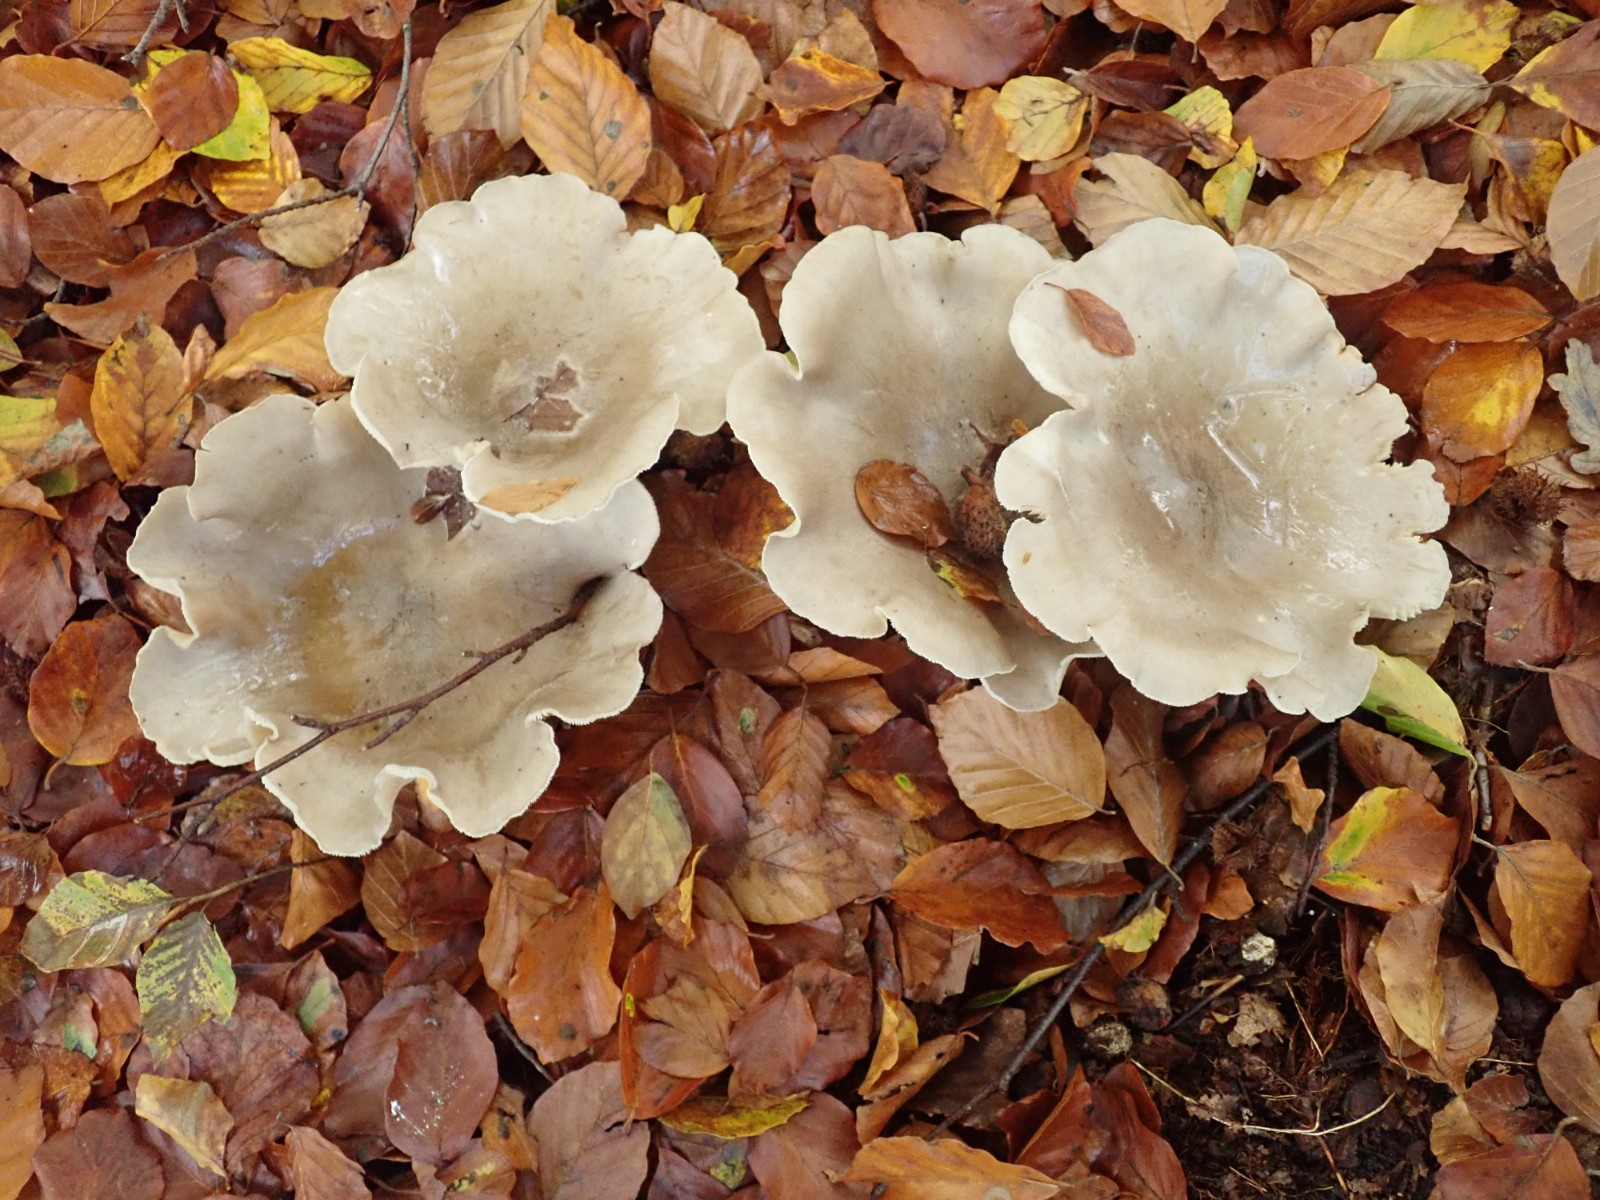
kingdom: Fungi
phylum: Basidiomycota
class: Agaricomycetes
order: Agaricales
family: Tricholomataceae
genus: Clitocybe
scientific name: Clitocybe nebularis
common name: tåge-tragthat
